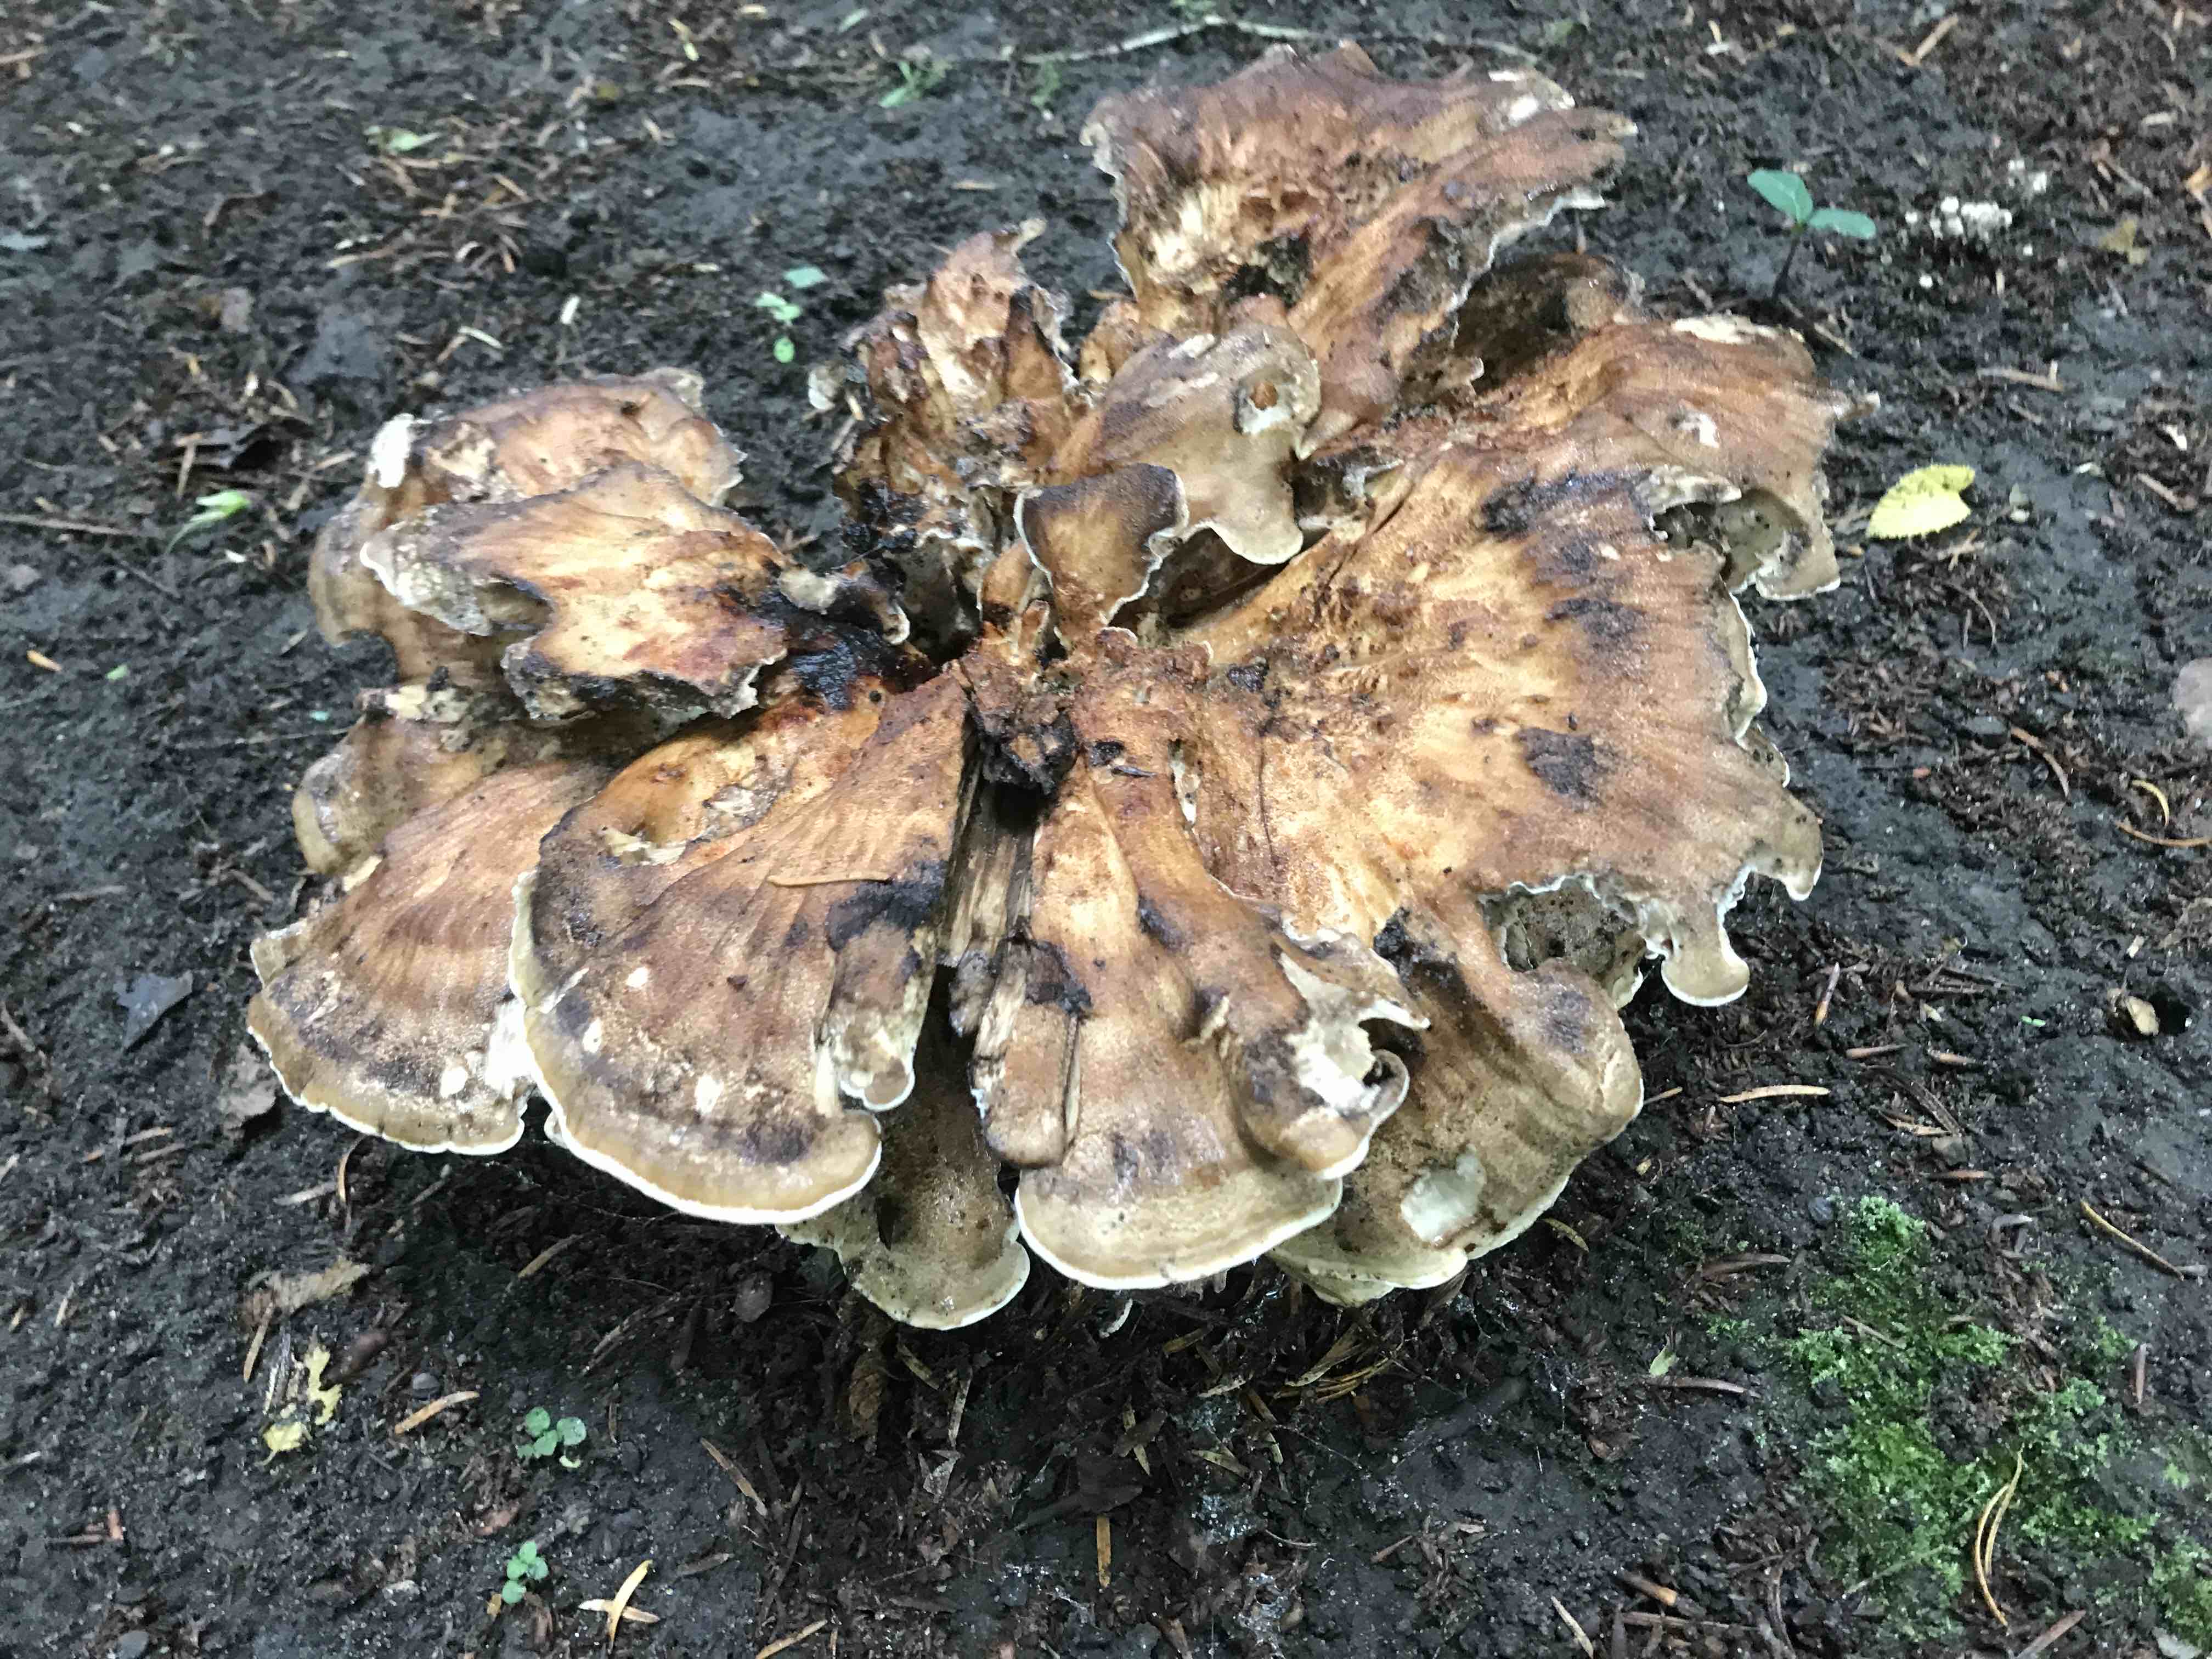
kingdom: Fungi
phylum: Basidiomycota
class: Agaricomycetes
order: Polyporales
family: Meripilaceae
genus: Meripilus
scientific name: Meripilus giganteus
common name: kæmpeporesvamp
